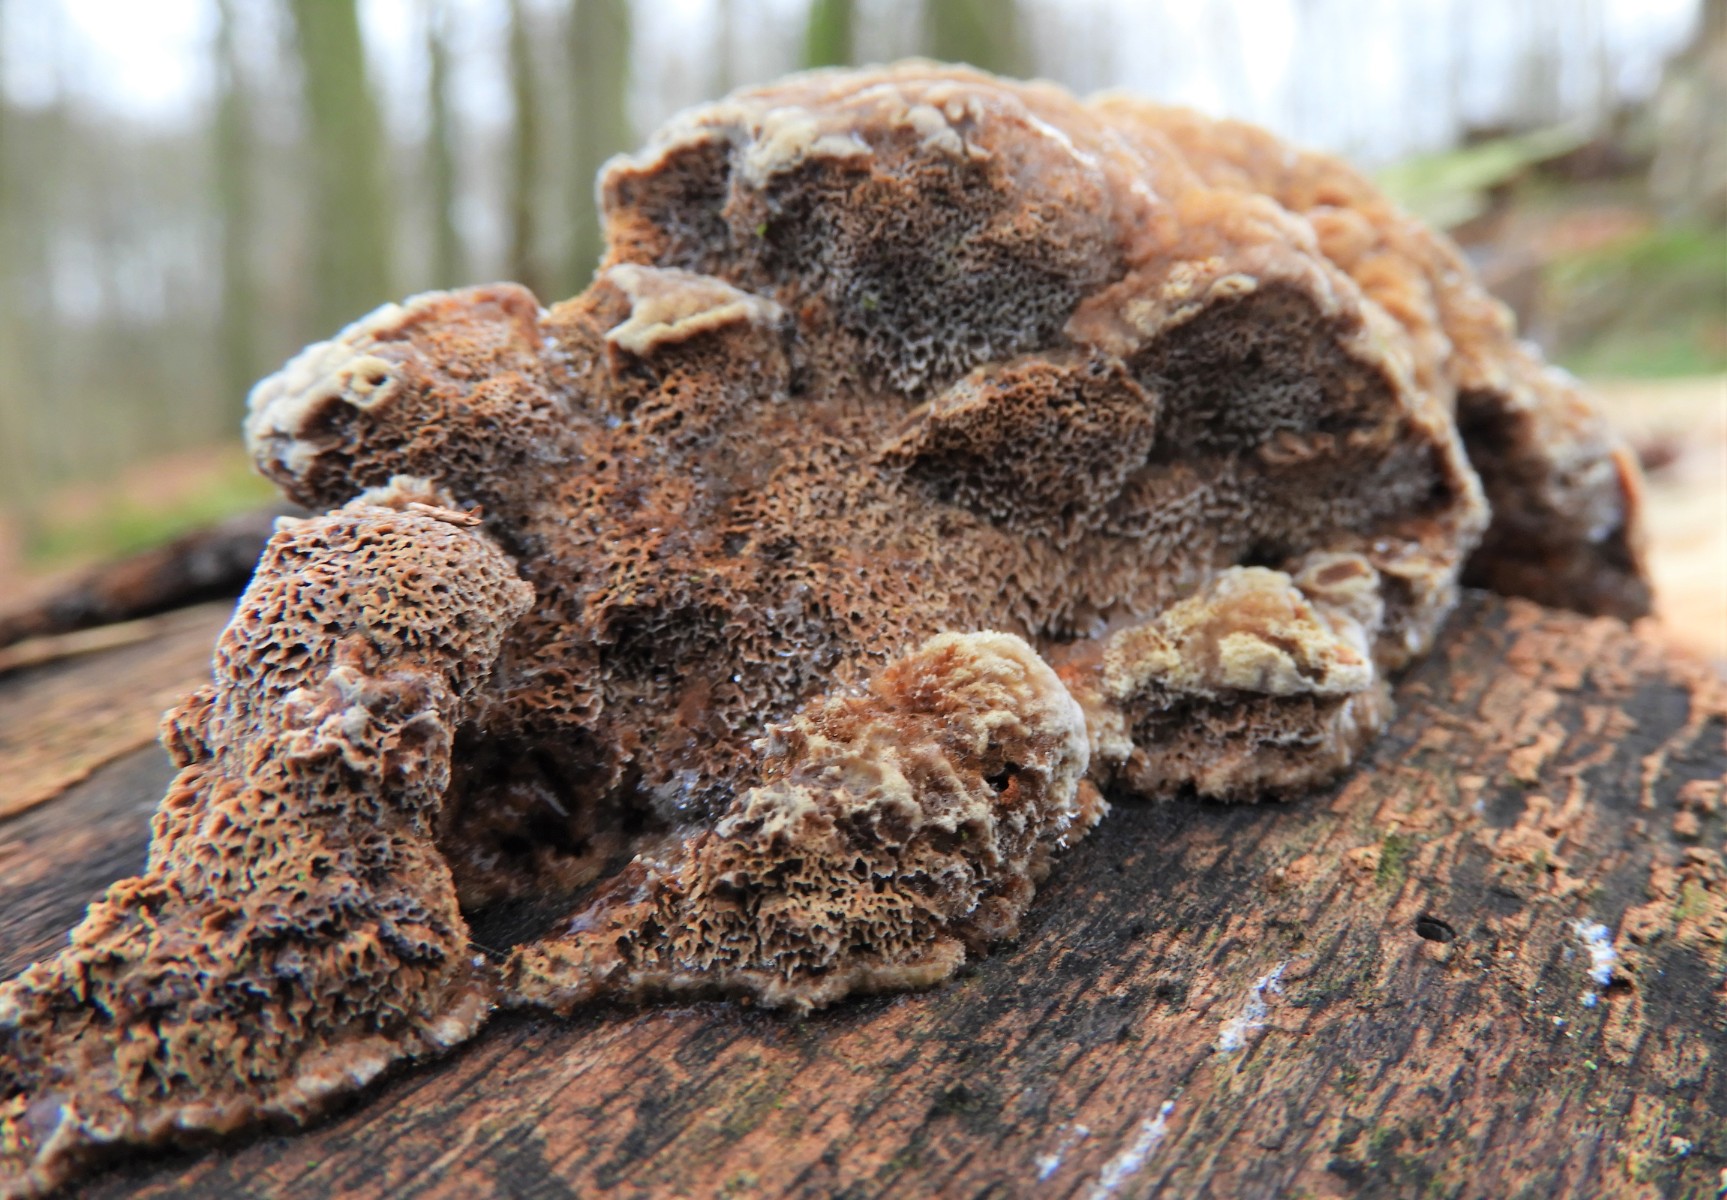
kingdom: Fungi
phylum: Basidiomycota
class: Agaricomycetes
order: Hymenochaetales
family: Hymenochaetaceae
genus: Mensularia
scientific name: Mensularia nodulosa
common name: bøge-spejlporesvamp
